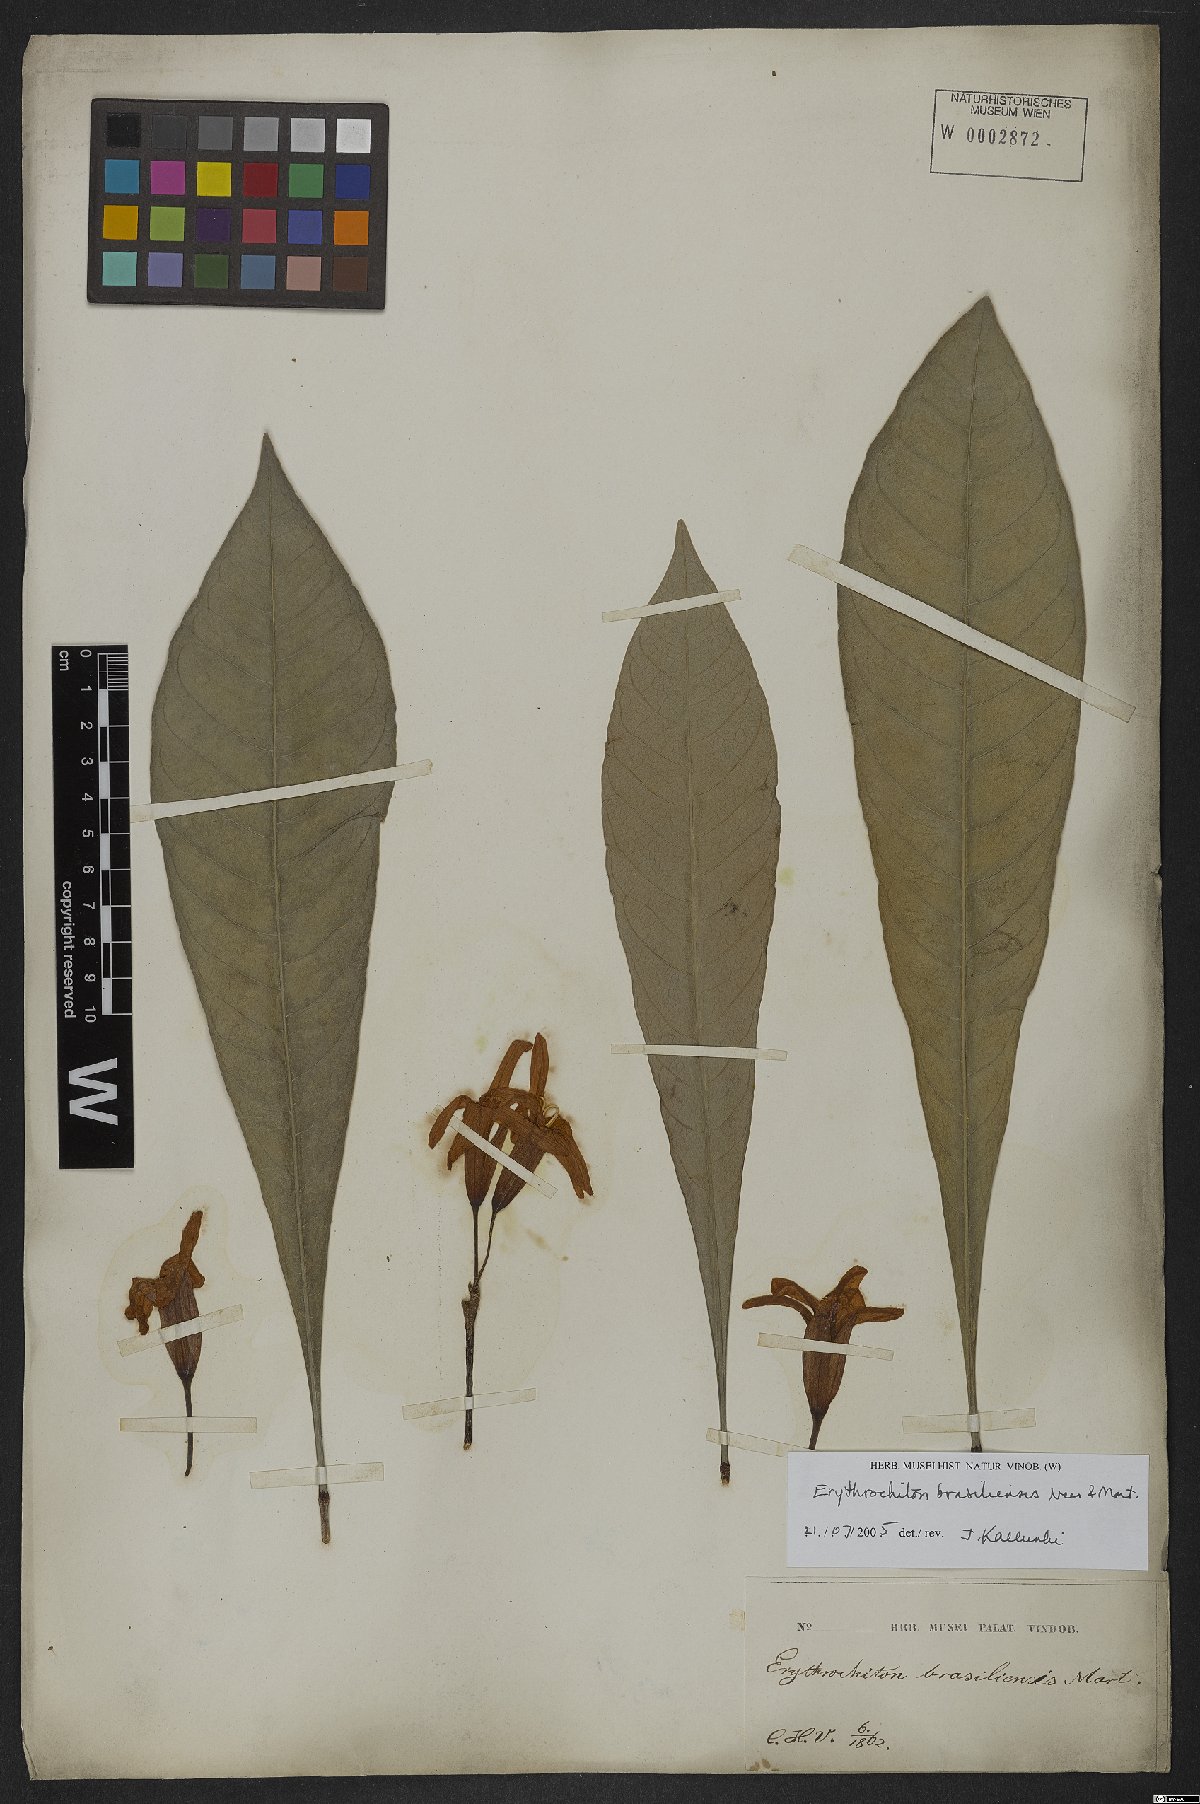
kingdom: Plantae
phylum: Tracheophyta
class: Magnoliopsida
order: Sapindales
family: Rutaceae
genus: Erythrochiton
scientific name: Erythrochiton brasiliensis
